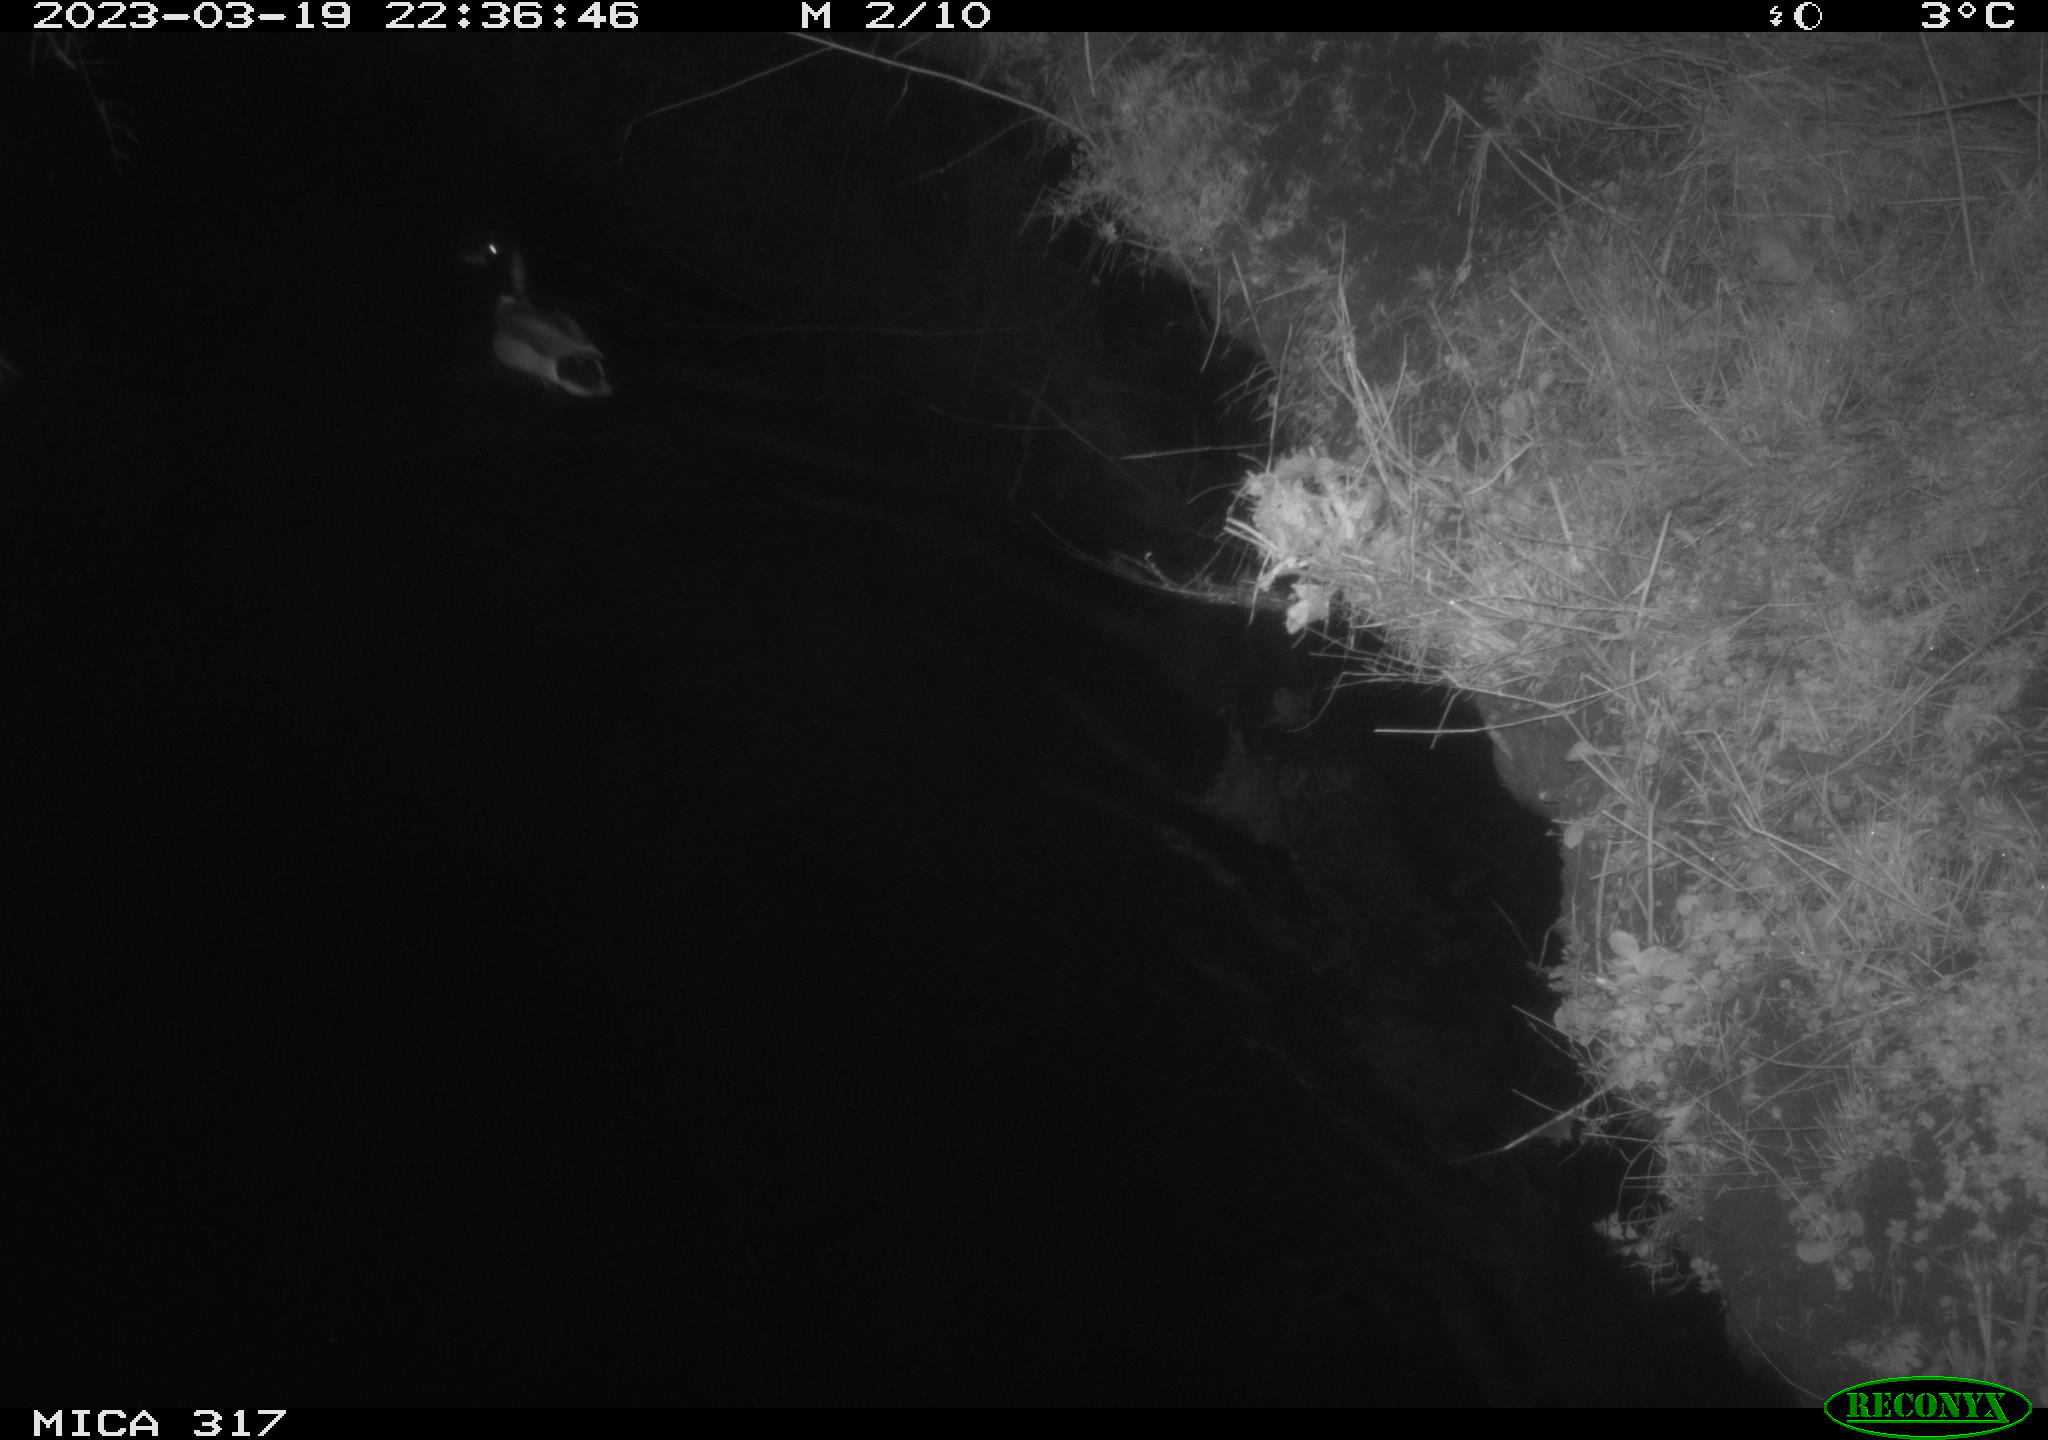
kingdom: Animalia
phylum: Chordata
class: Aves
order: Anseriformes
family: Anatidae
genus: Anas
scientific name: Anas
